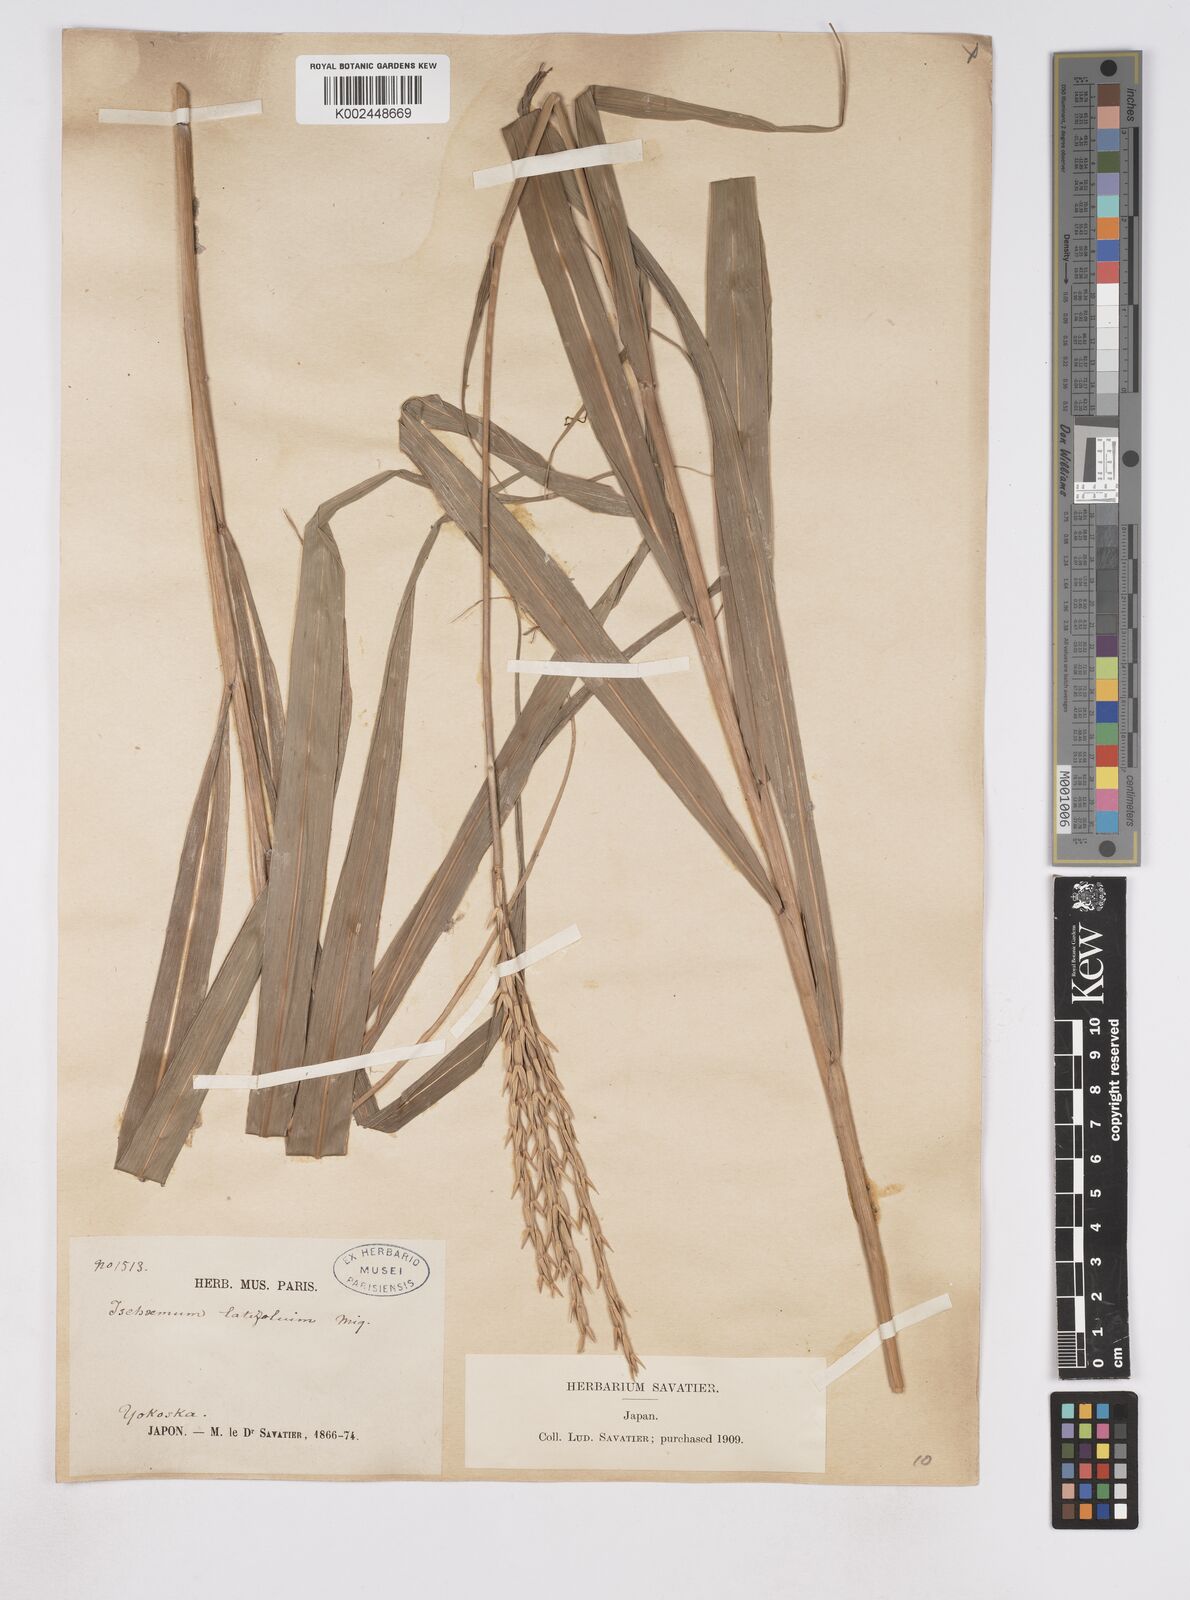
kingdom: Plantae
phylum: Tracheophyta
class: Liliopsida
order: Poales
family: Poaceae
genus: Phacelurus
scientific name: Phacelurus latifolius
